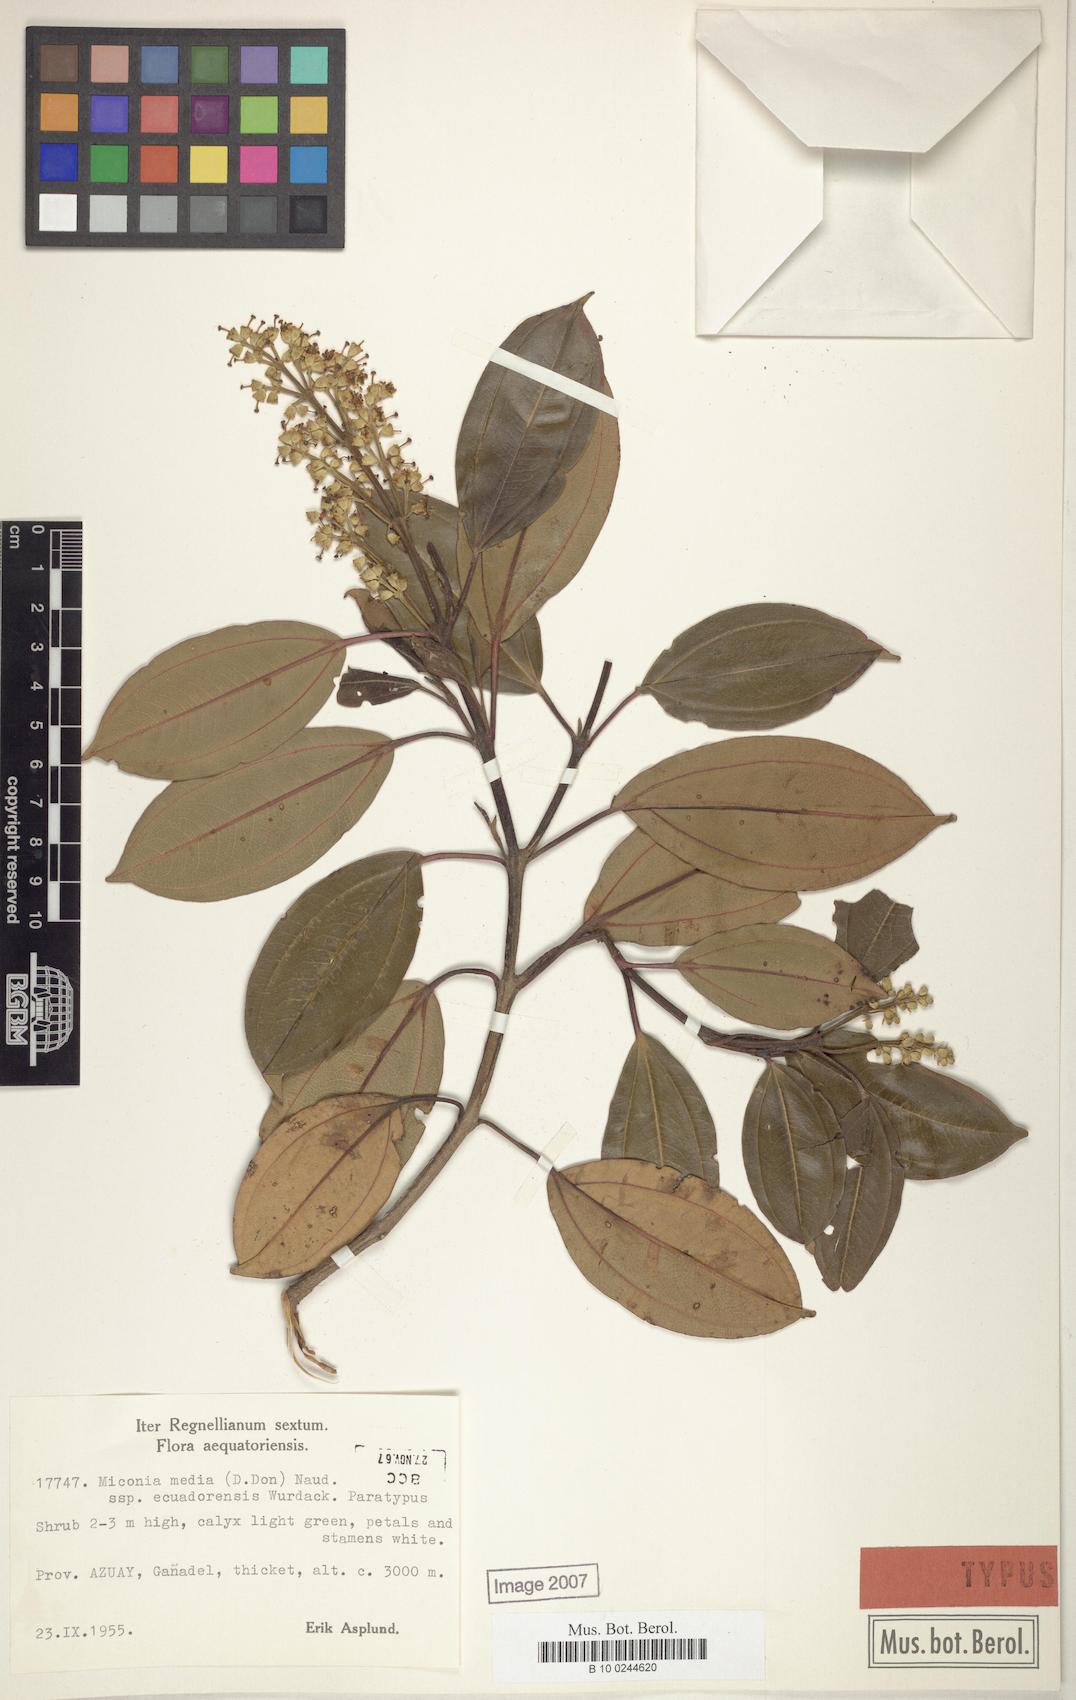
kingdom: Plantae
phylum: Tracheophyta
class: Magnoliopsida
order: Myrtales
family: Melastomataceae
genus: Miconia
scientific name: Miconia media
